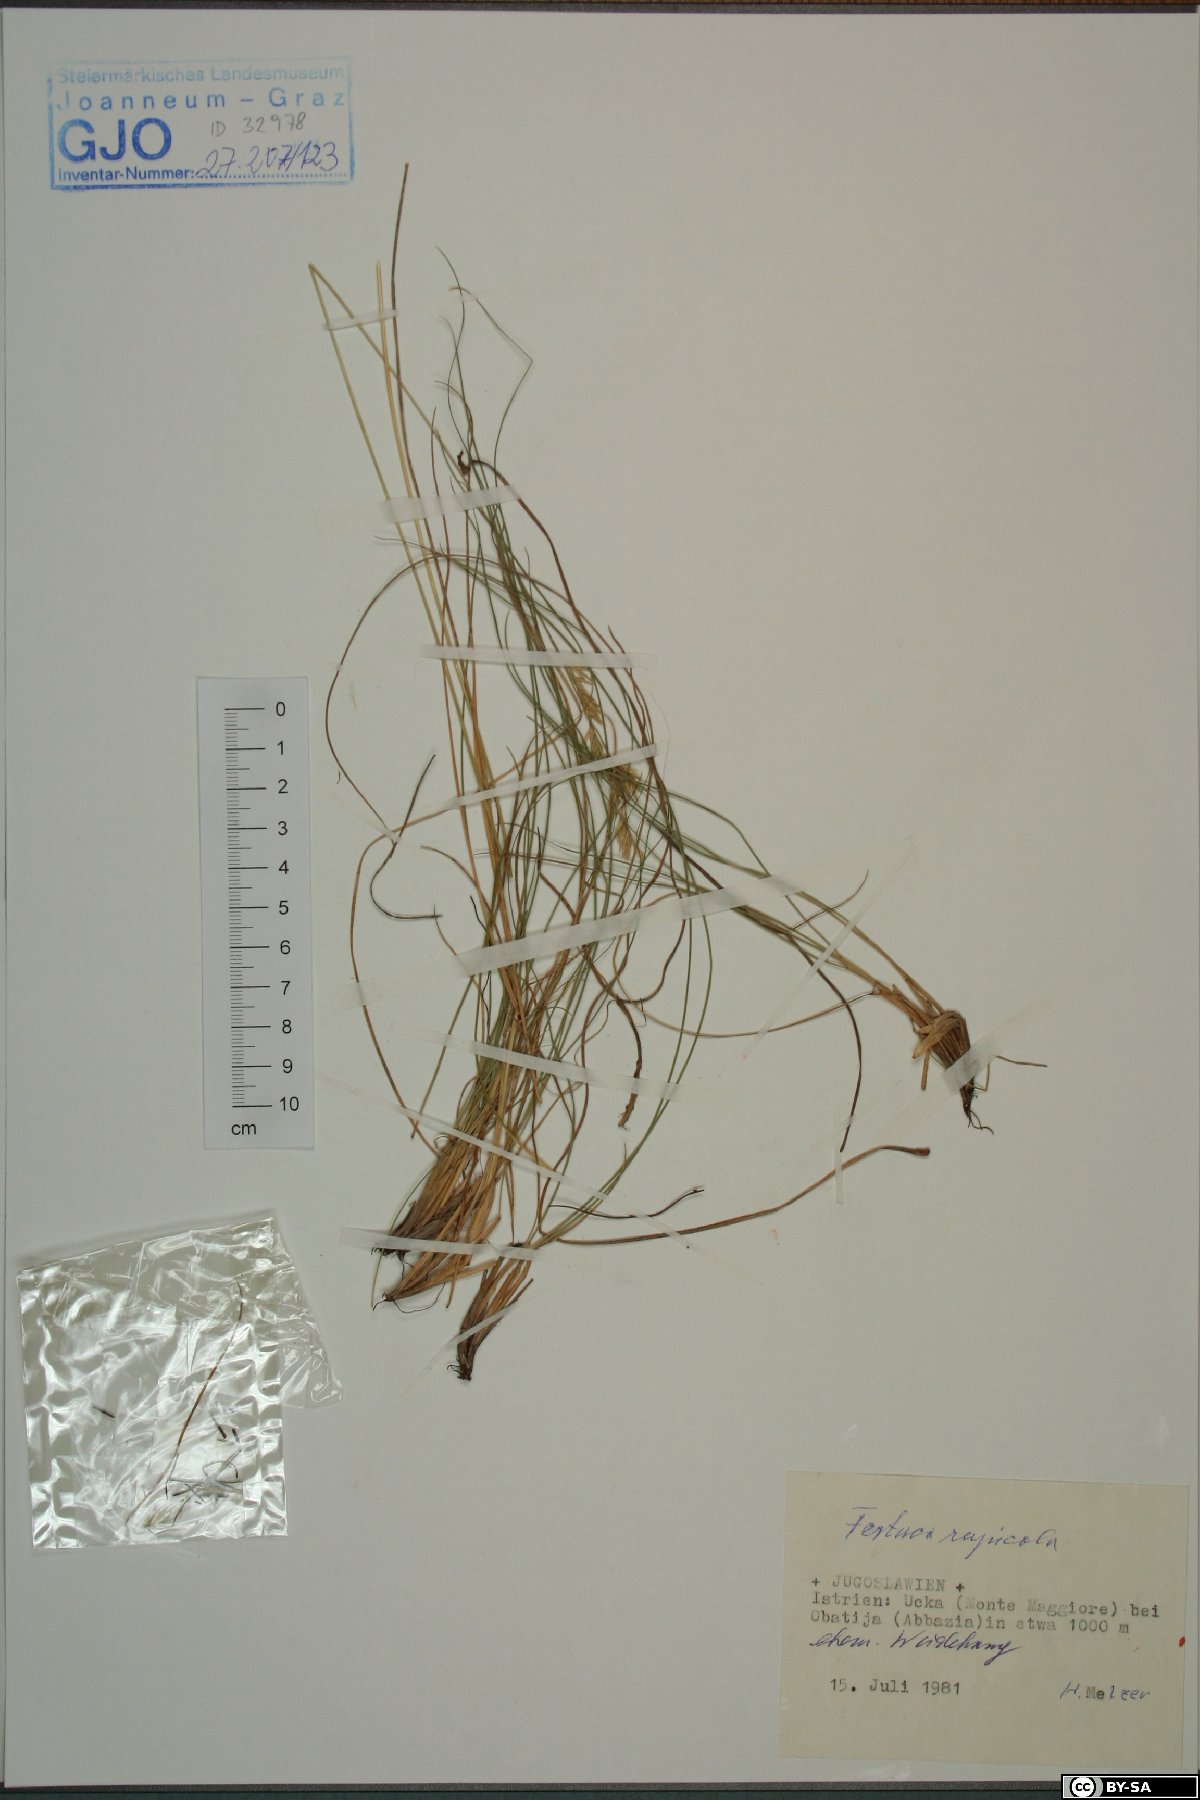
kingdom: Plantae
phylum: Tracheophyta
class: Liliopsida
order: Poales
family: Poaceae
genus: Festuca
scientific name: Festuca rupicola
